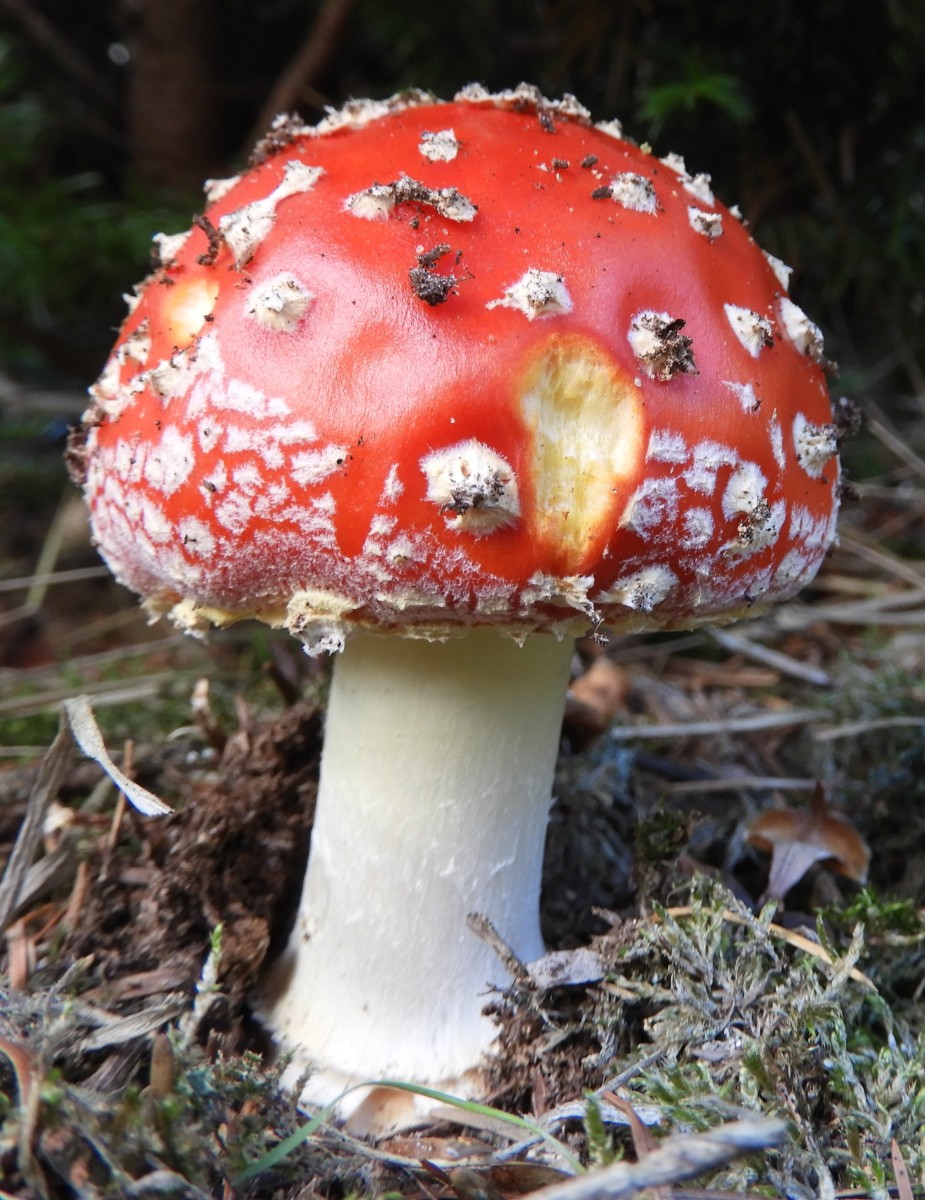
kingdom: Fungi
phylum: Basidiomycota
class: Agaricomycetes
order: Agaricales
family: Amanitaceae
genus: Amanita
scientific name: Amanita muscaria
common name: rød fluesvamp
